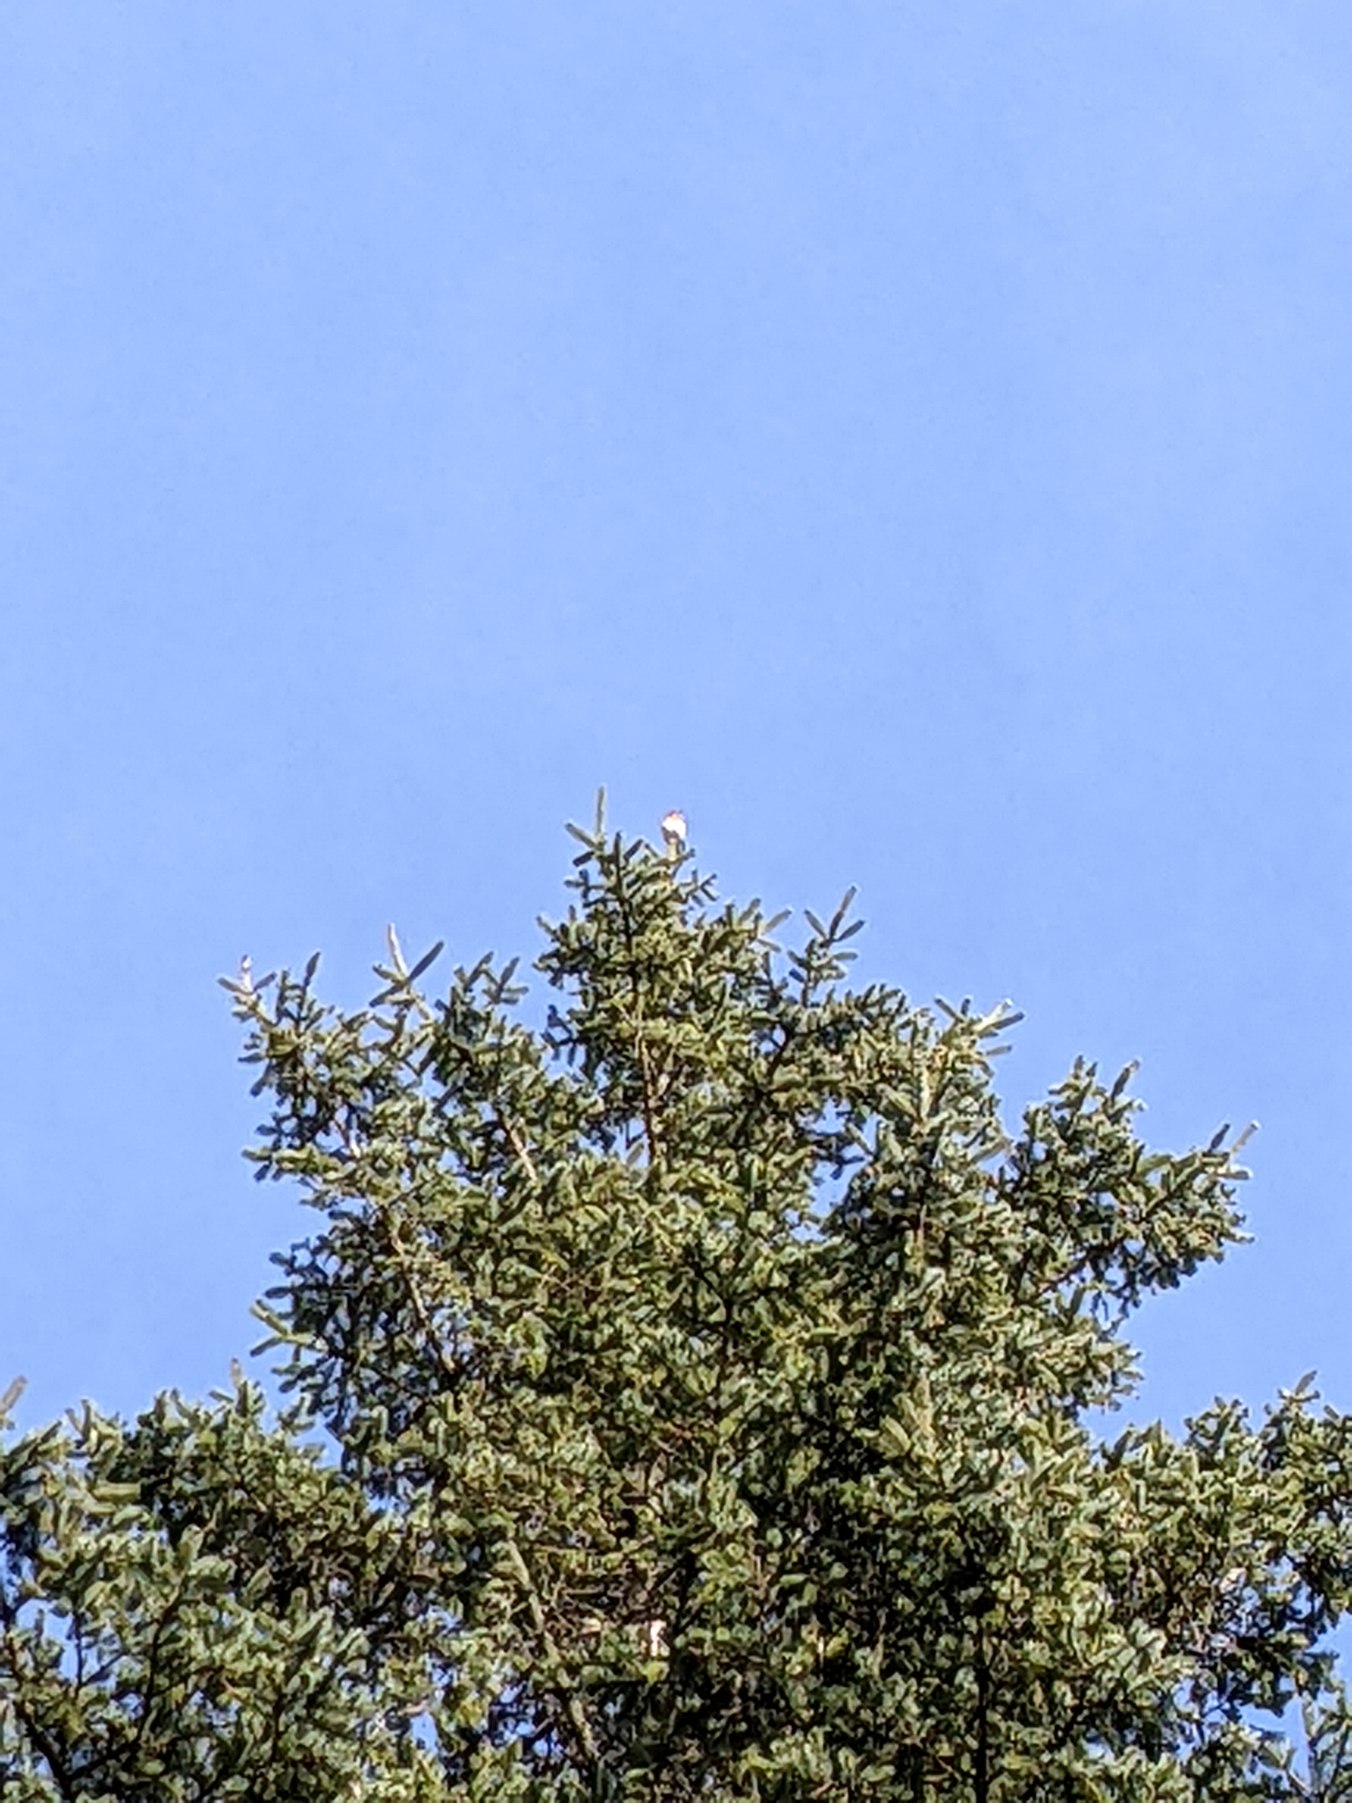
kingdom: Animalia
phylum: Chordata
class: Aves
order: Passeriformes
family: Muscicapidae
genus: Erithacus
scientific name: Erithacus rubecula
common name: Rødhals/rødkælk
